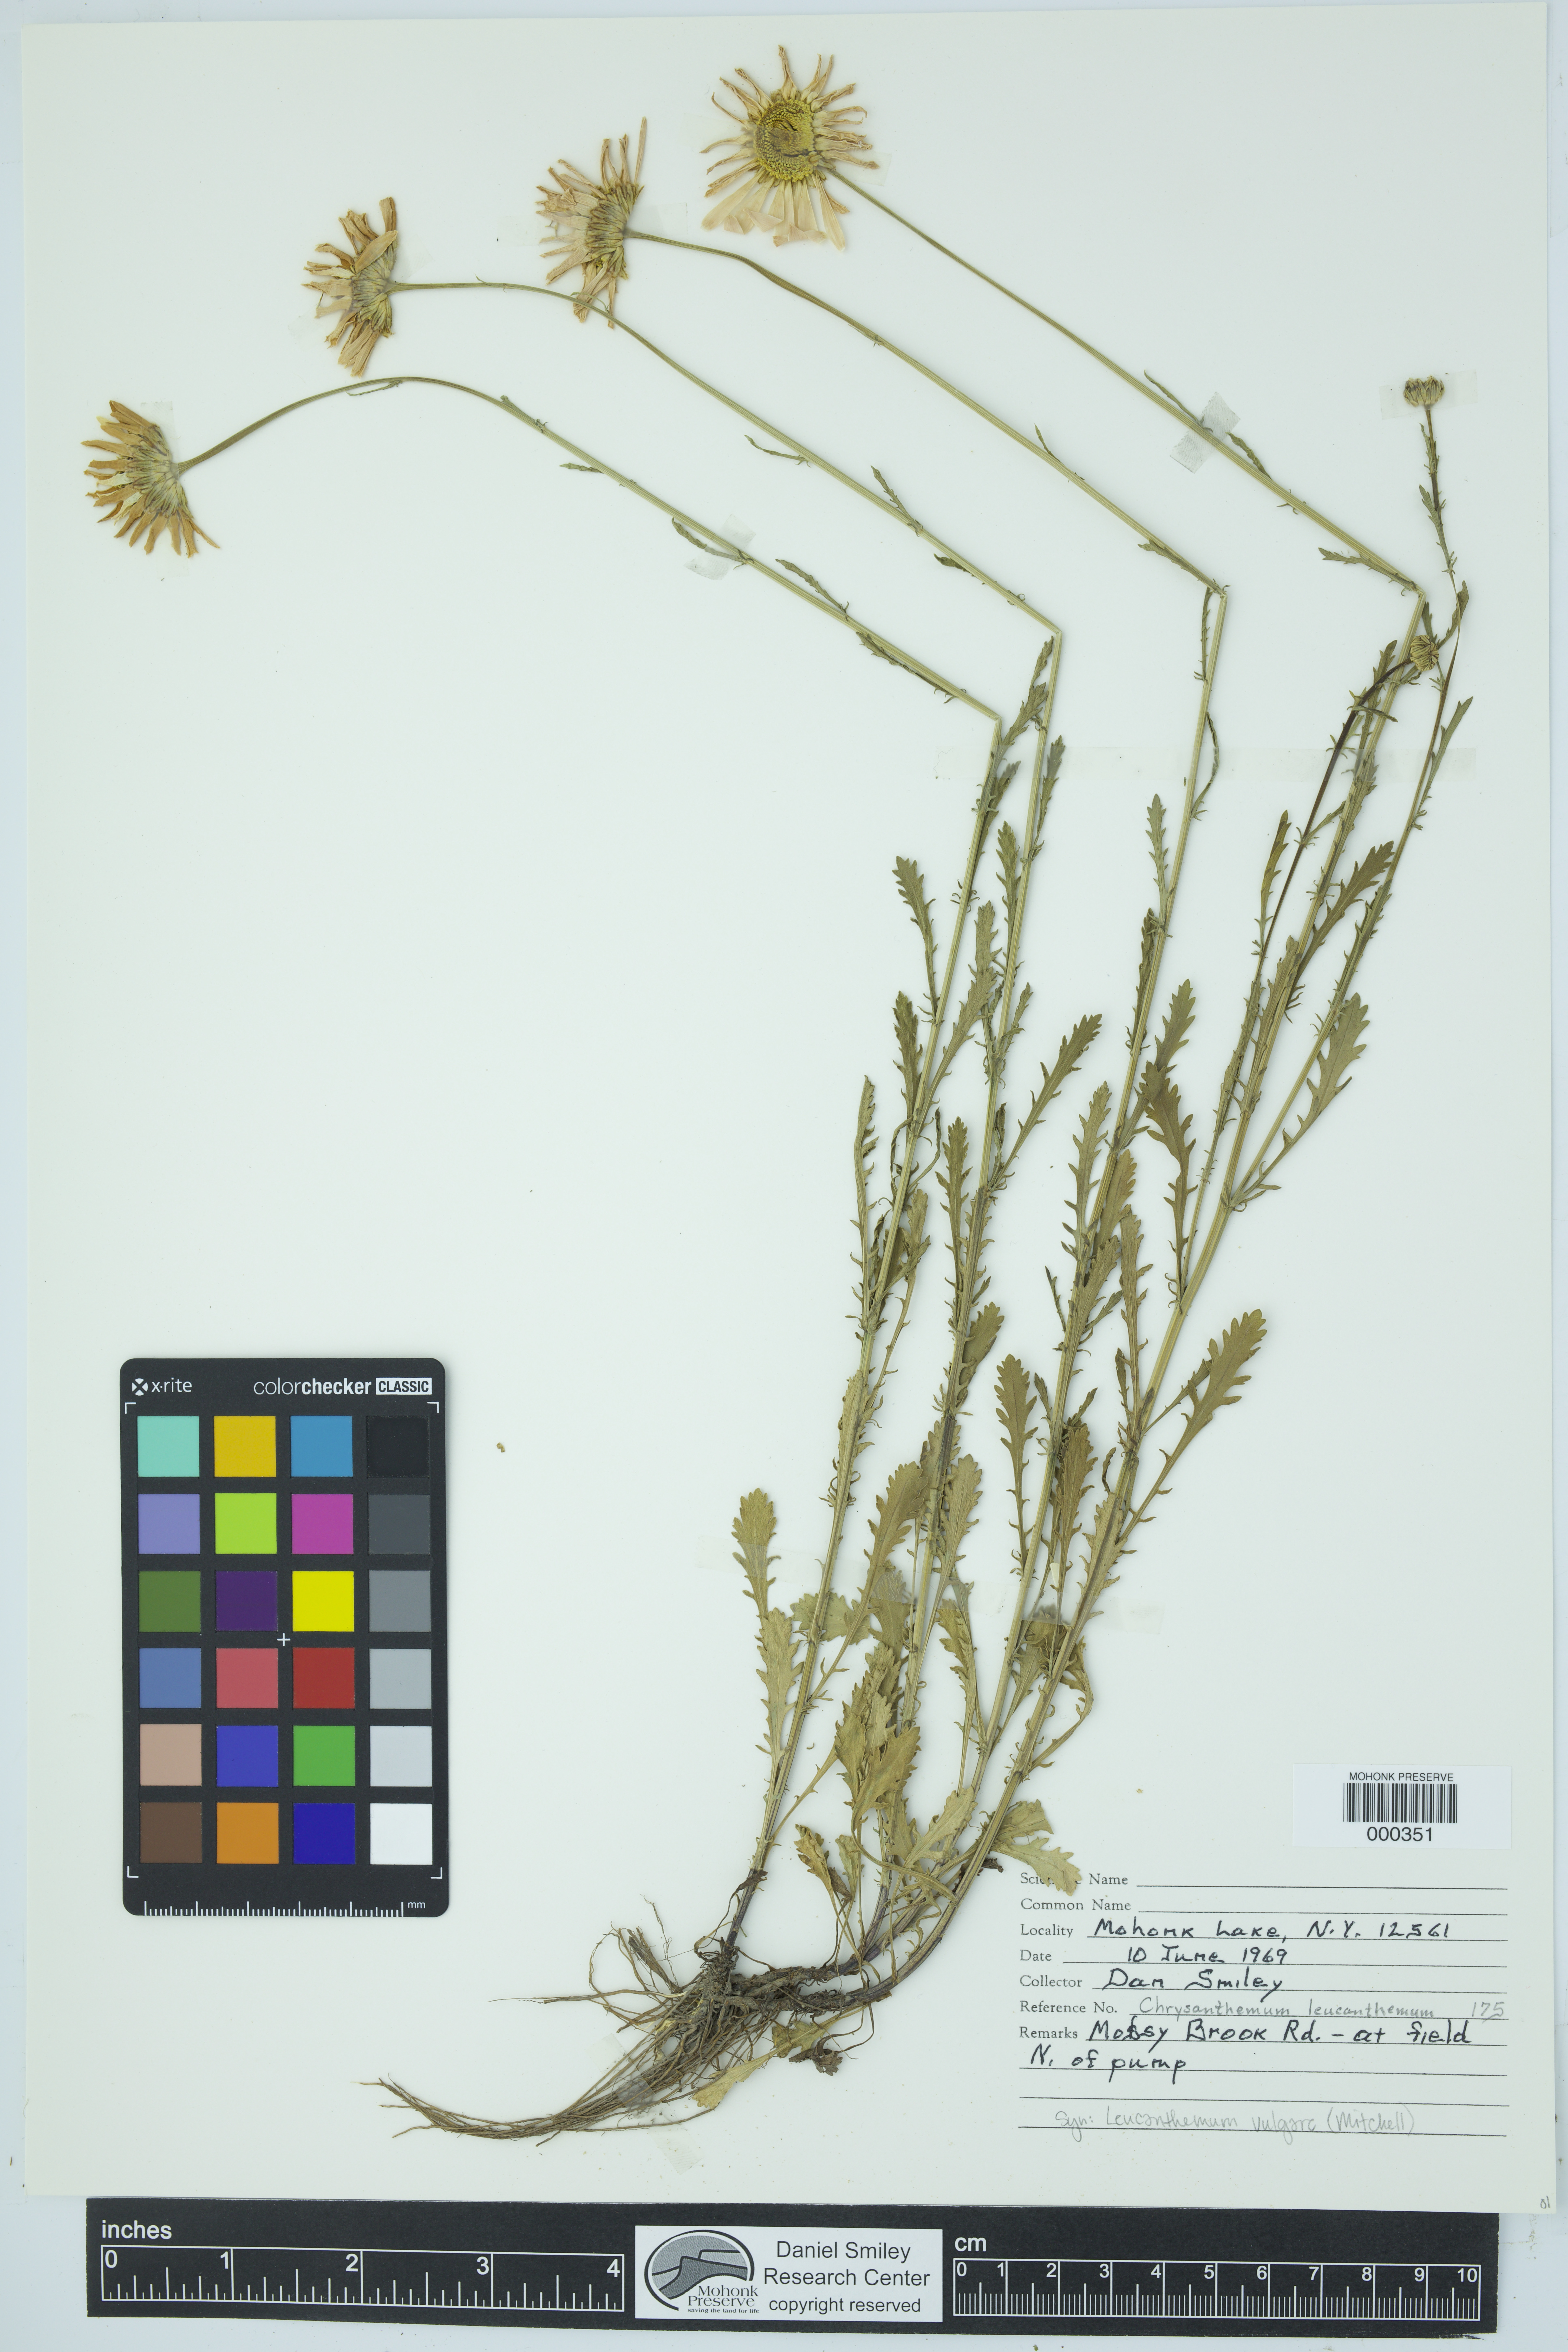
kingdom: Plantae
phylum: Tracheophyta
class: Magnoliopsida
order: Asterales
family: Asteraceae
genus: Leucanthemum
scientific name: Leucanthemum vulgare
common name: Oxeye daisy
